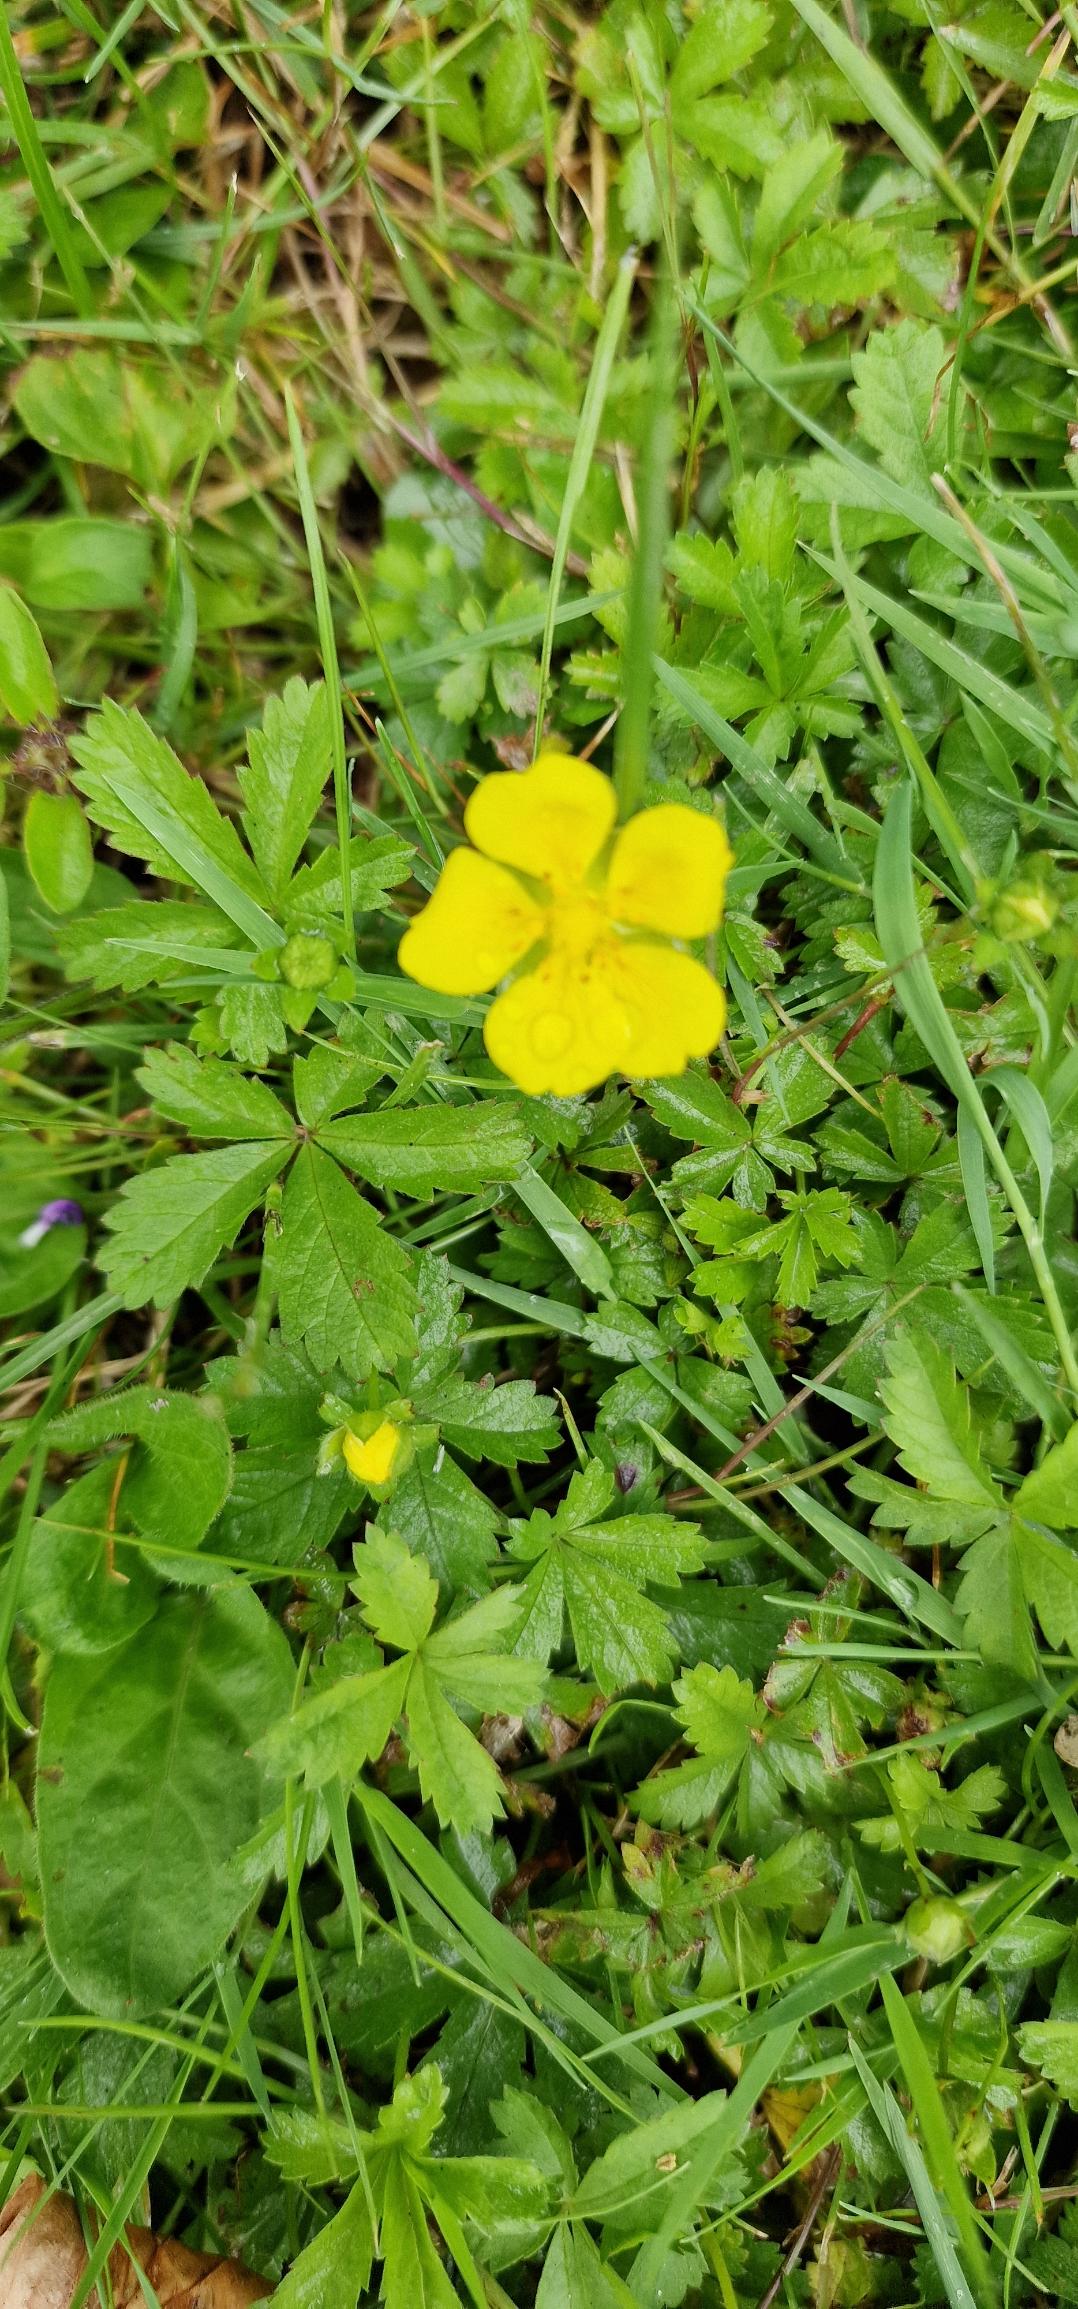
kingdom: Plantae
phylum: Tracheophyta
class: Magnoliopsida
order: Rosales
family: Rosaceae
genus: Potentilla
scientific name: Potentilla reptans
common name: Krybende potentil
